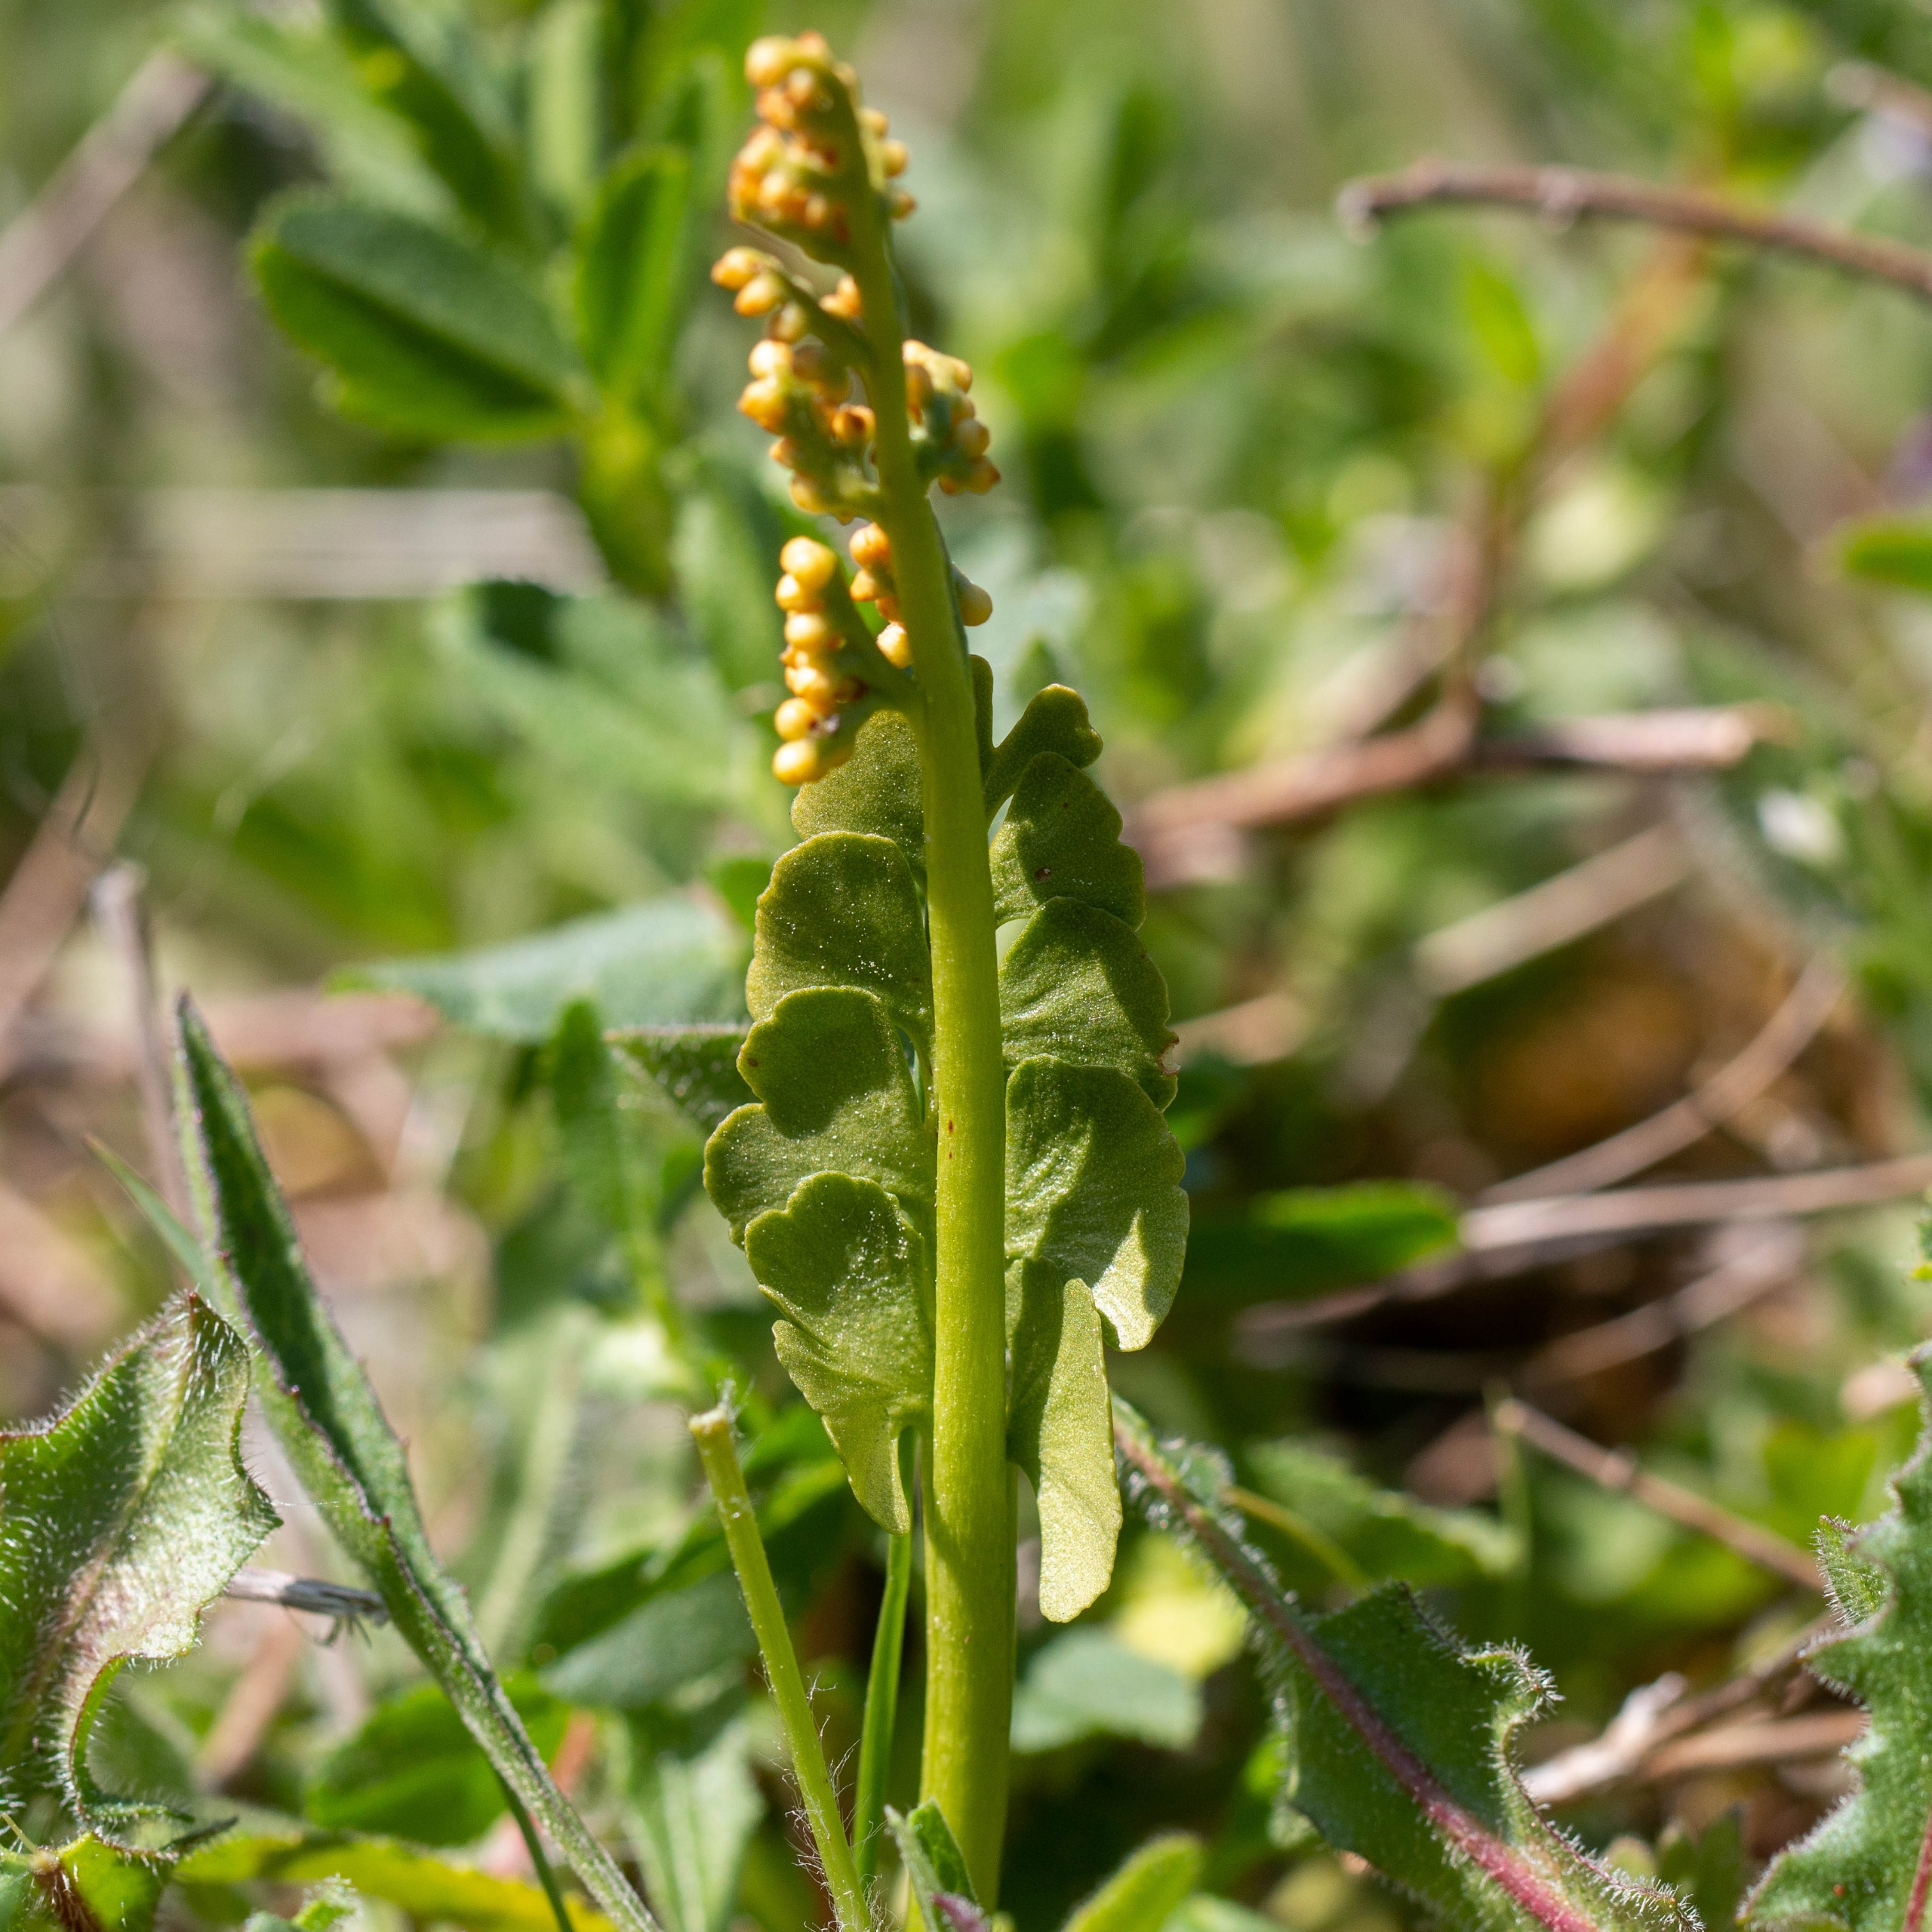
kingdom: Plantae
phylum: Tracheophyta
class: Polypodiopsida
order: Ophioglossales
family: Ophioglossaceae
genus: Botrychium
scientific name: Botrychium lunaria
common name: Almindelig månerude
